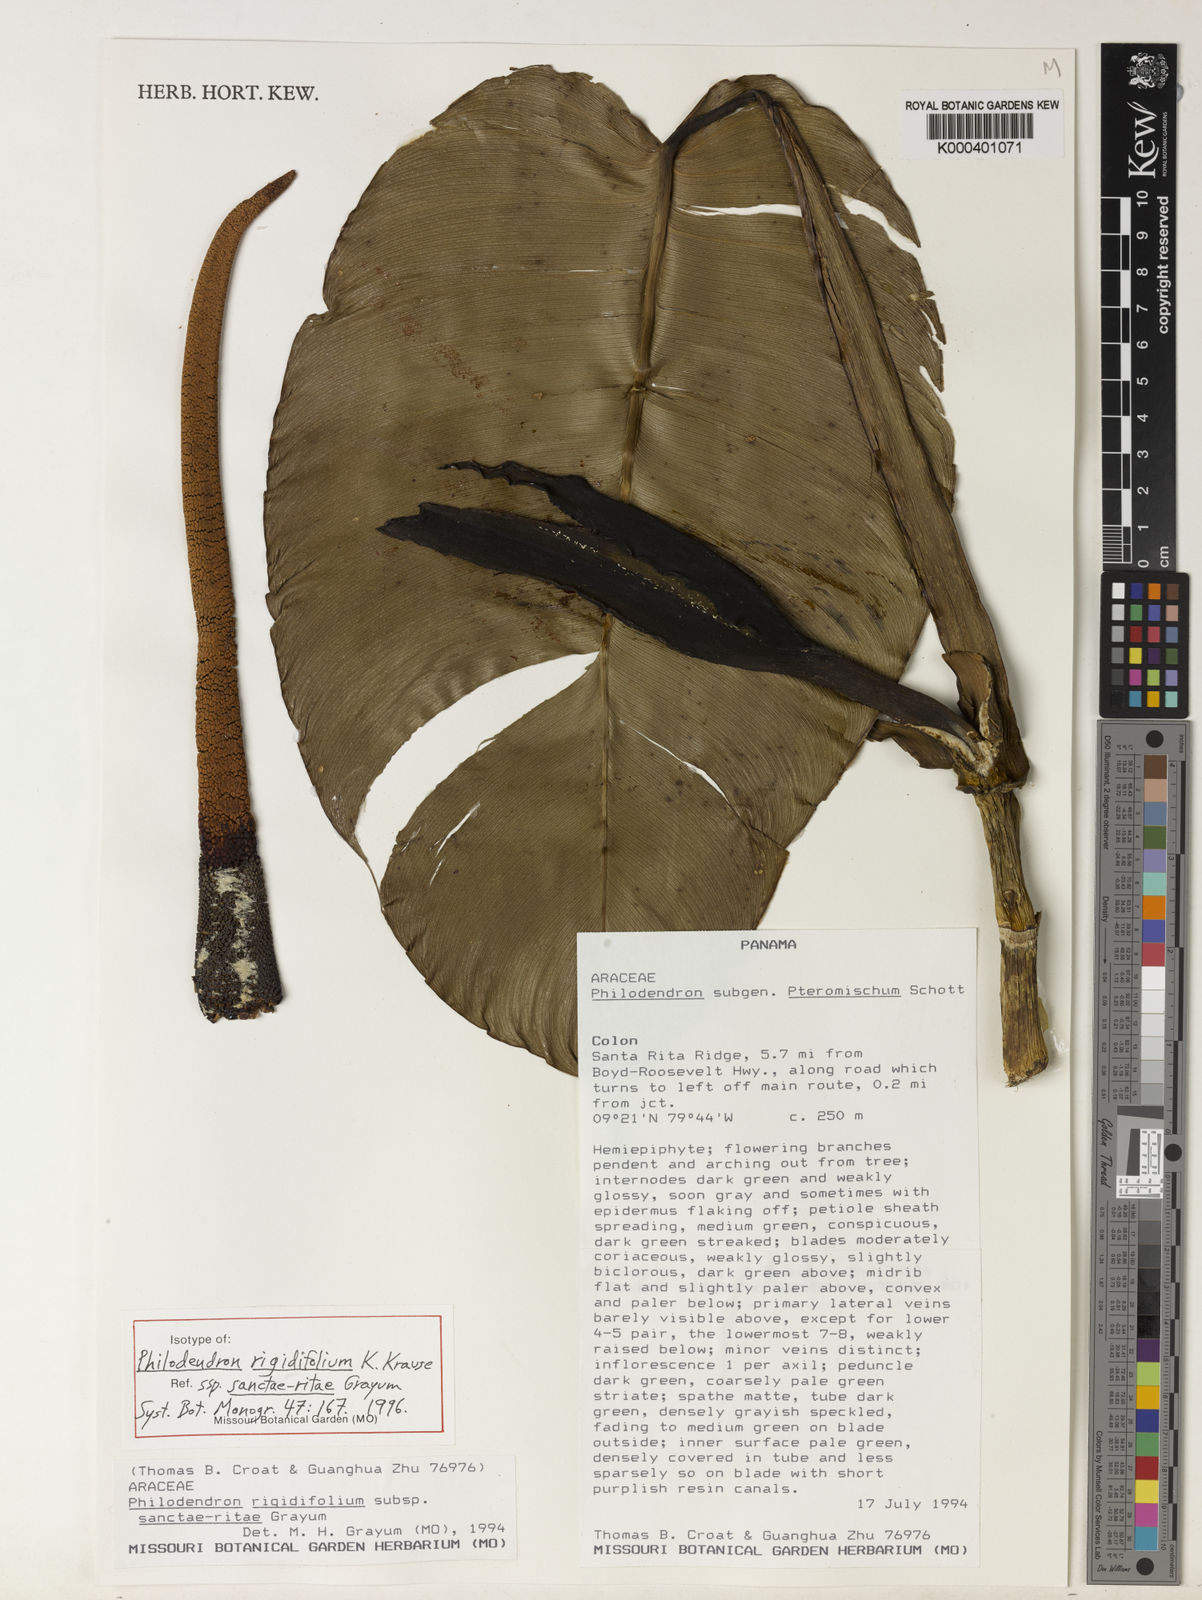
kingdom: Plantae
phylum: Tracheophyta
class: Liliopsida
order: Alismatales
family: Araceae
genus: Philodendron
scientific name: Philodendron rigidifolium
